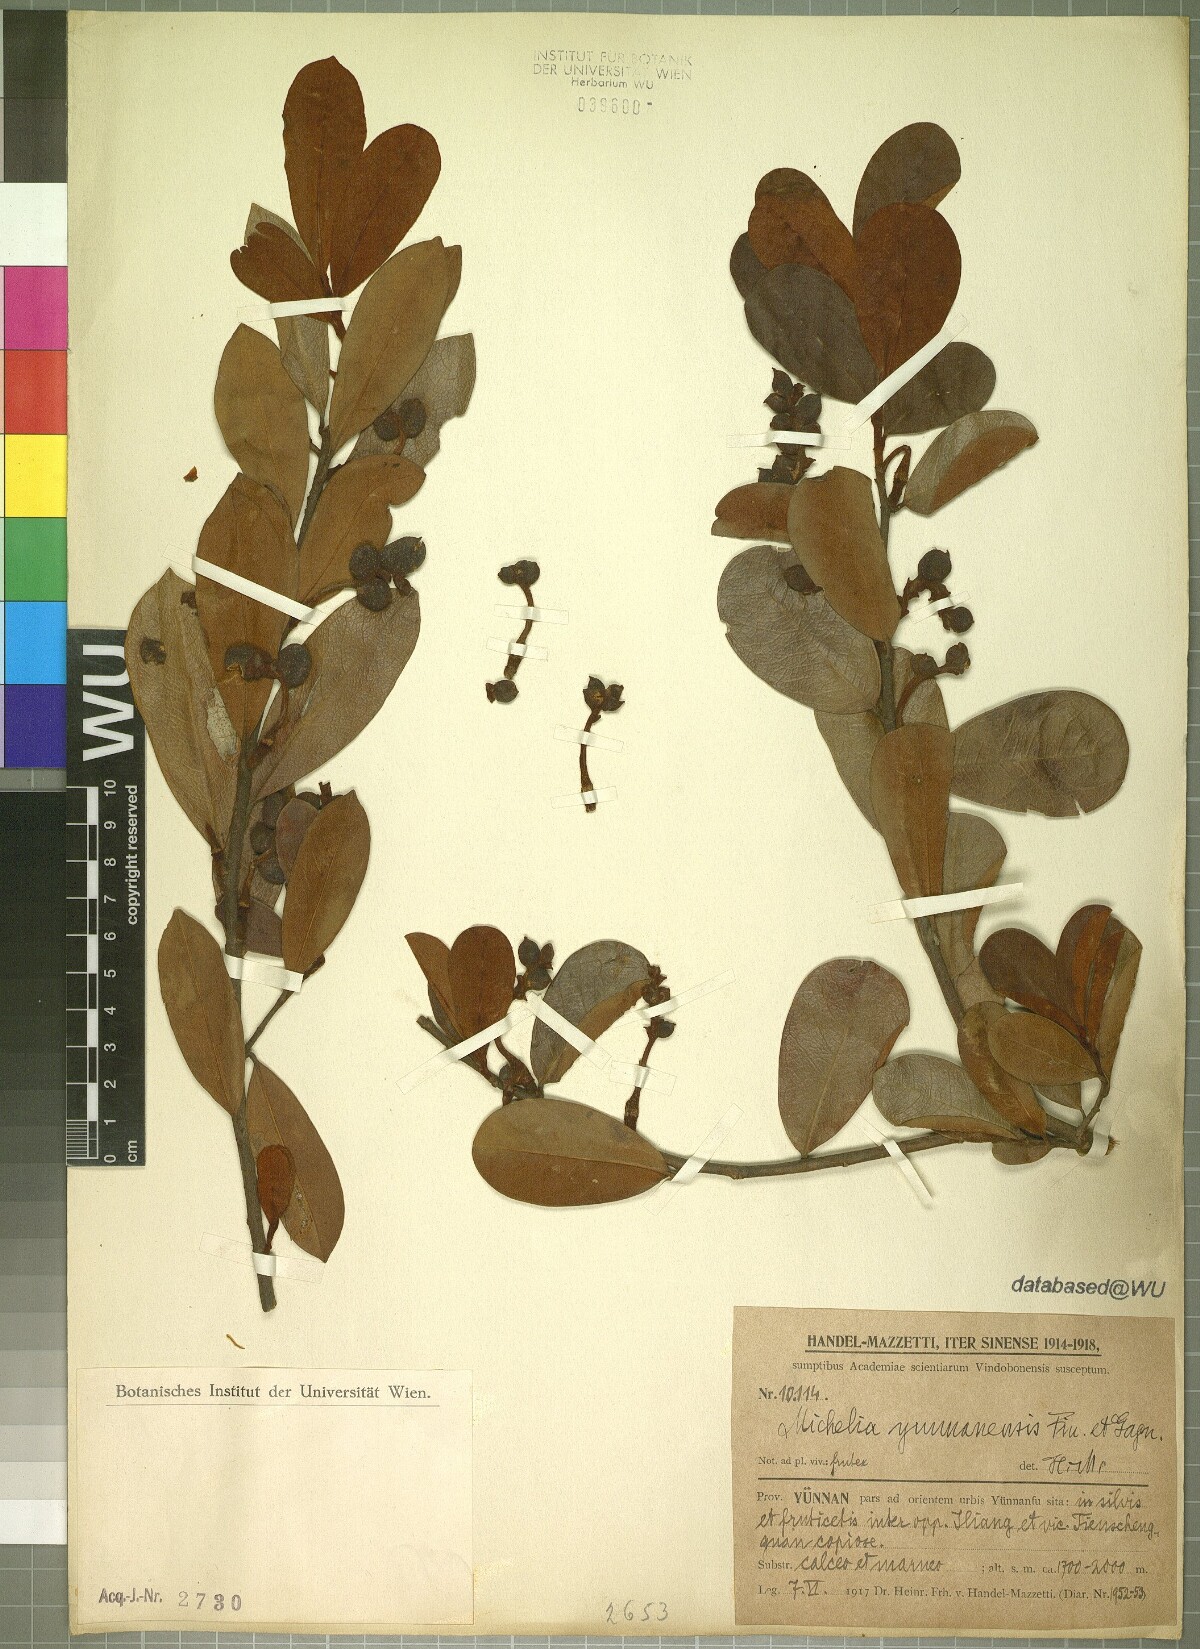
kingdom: Plantae
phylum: Tracheophyta
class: Magnoliopsida
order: Magnoliales
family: Magnoliaceae
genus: Magnolia
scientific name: Magnolia laevifolia
